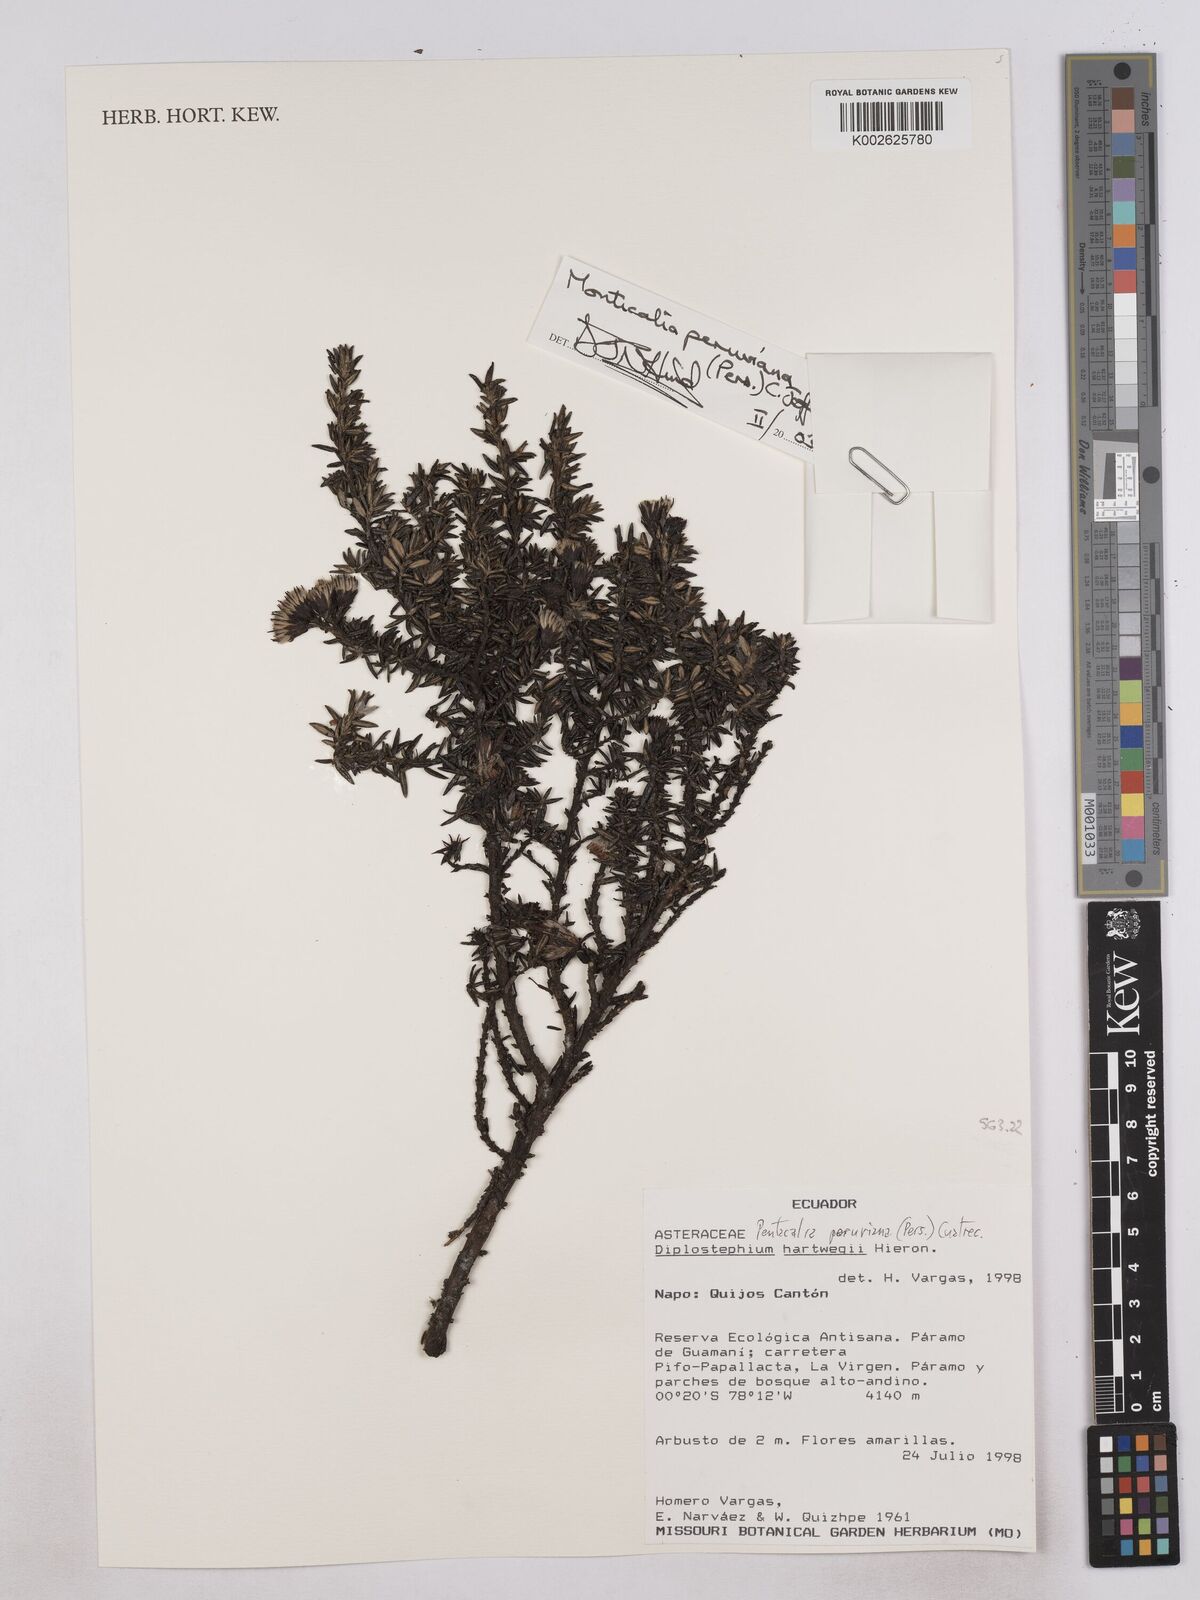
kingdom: Plantae
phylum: Tracheophyta
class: Magnoliopsida
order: Asterales
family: Asteraceae
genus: Monticalia
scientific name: Monticalia peruviana
